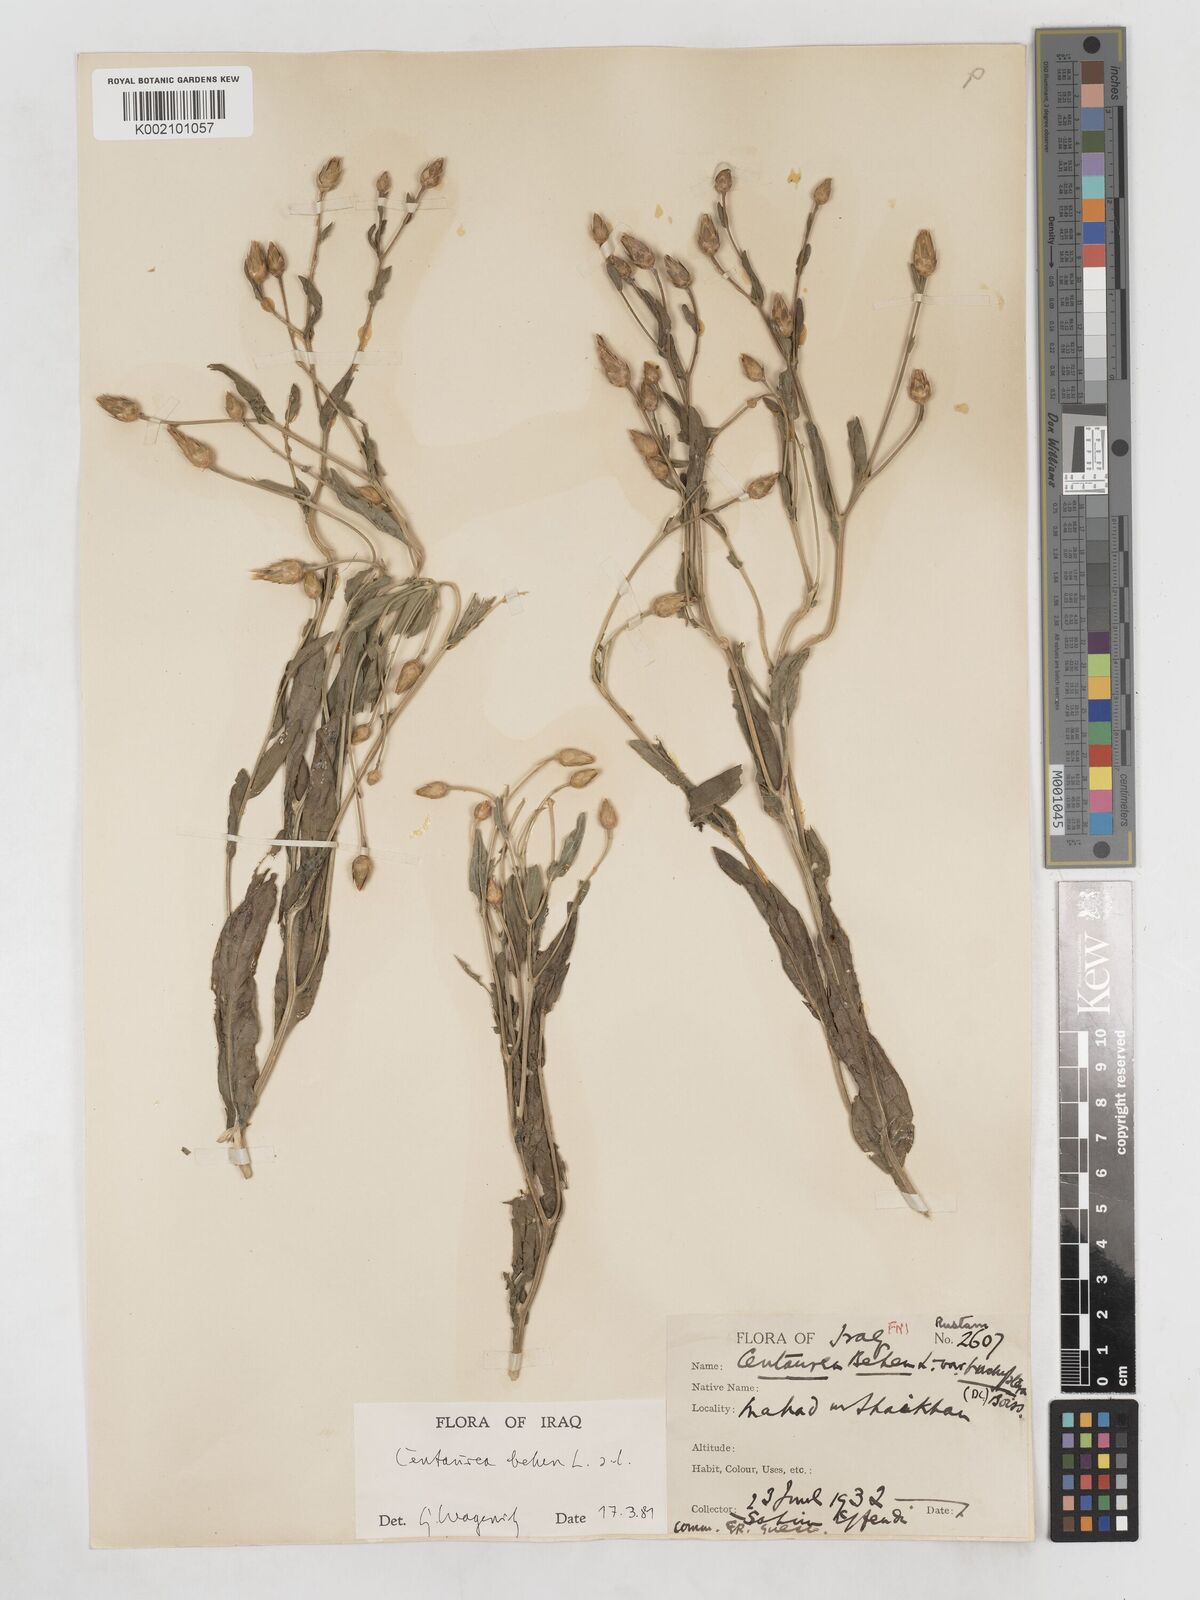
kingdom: Plantae
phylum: Tracheophyta
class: Magnoliopsida
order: Asterales
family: Asteraceae
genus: Centaurea
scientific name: Centaurea behen
